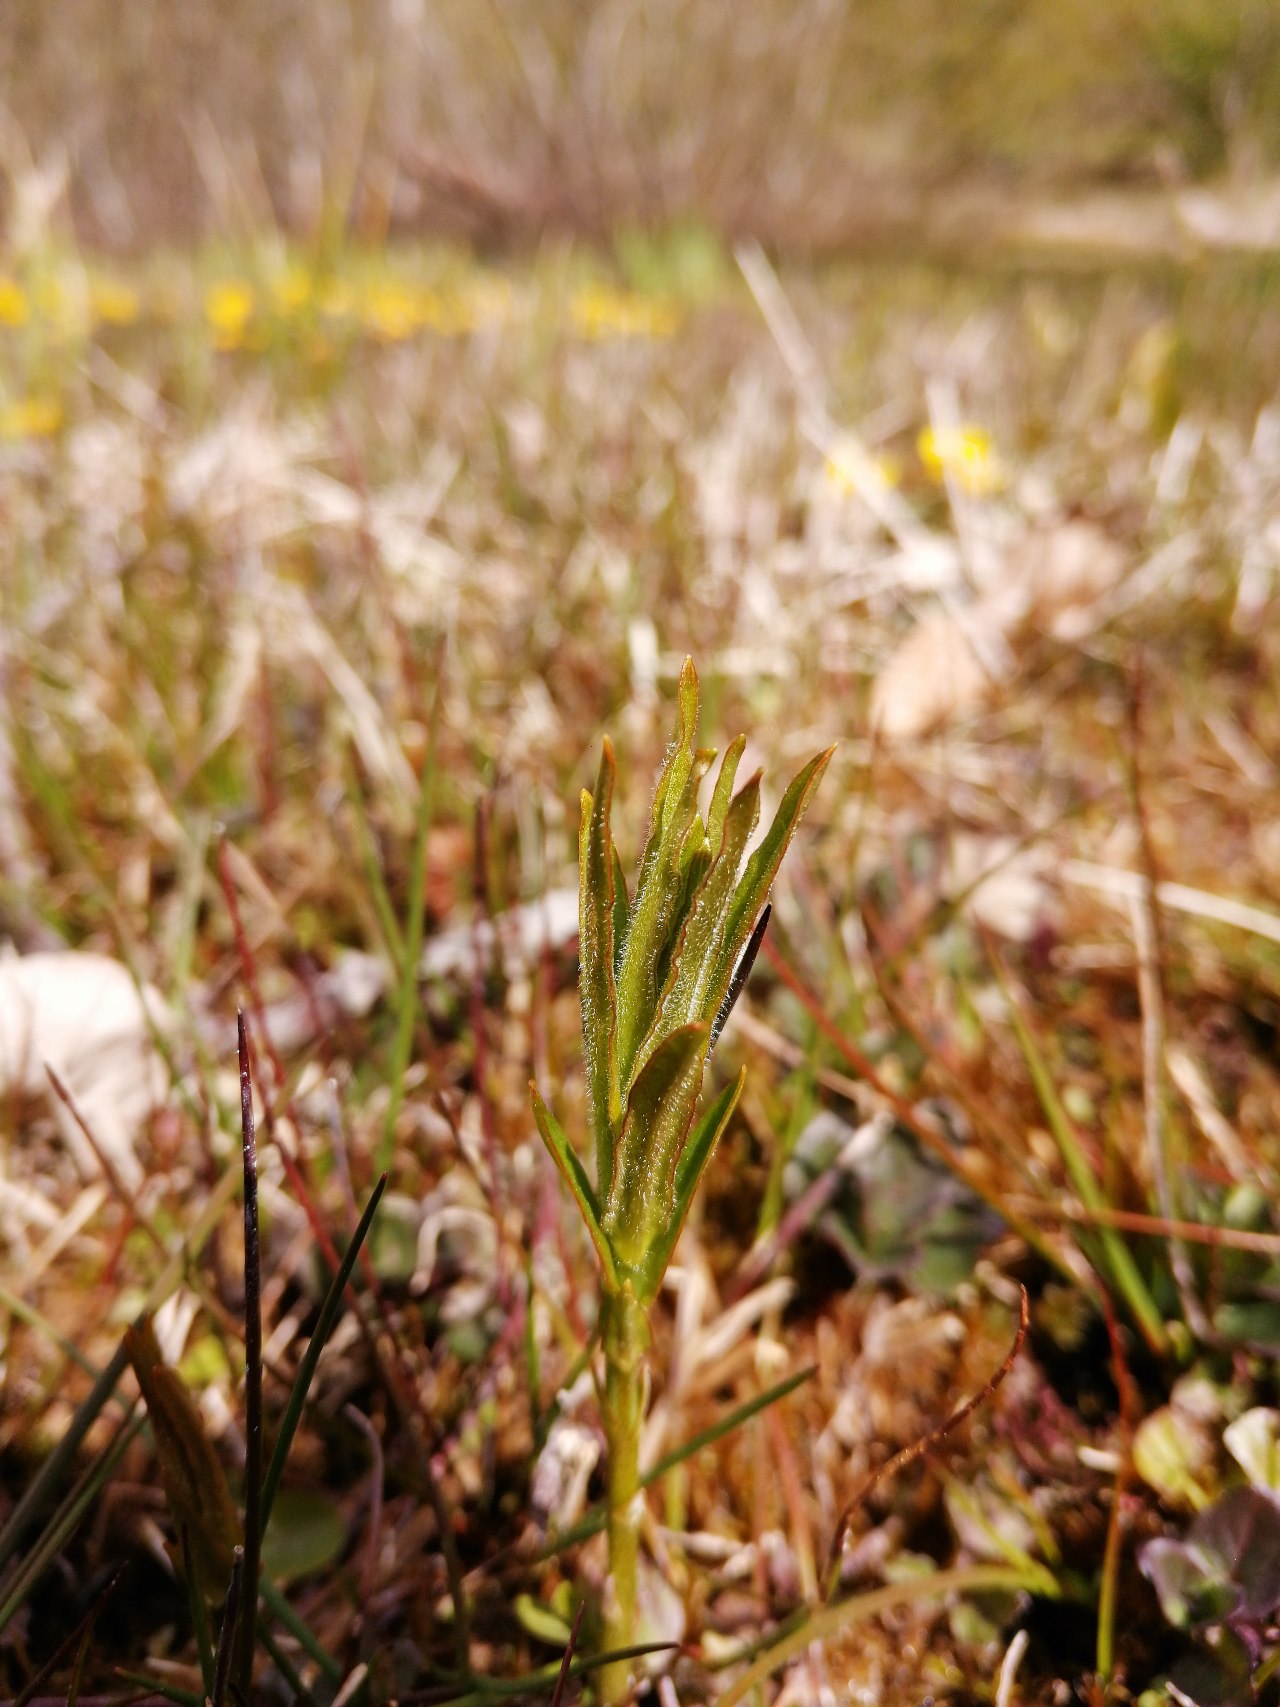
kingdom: Plantae
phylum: Tracheophyta
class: Magnoliopsida
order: Ericales
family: Primulaceae
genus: Lysimachia
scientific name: Lysimachia vulgaris
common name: Almindelig fredløs
